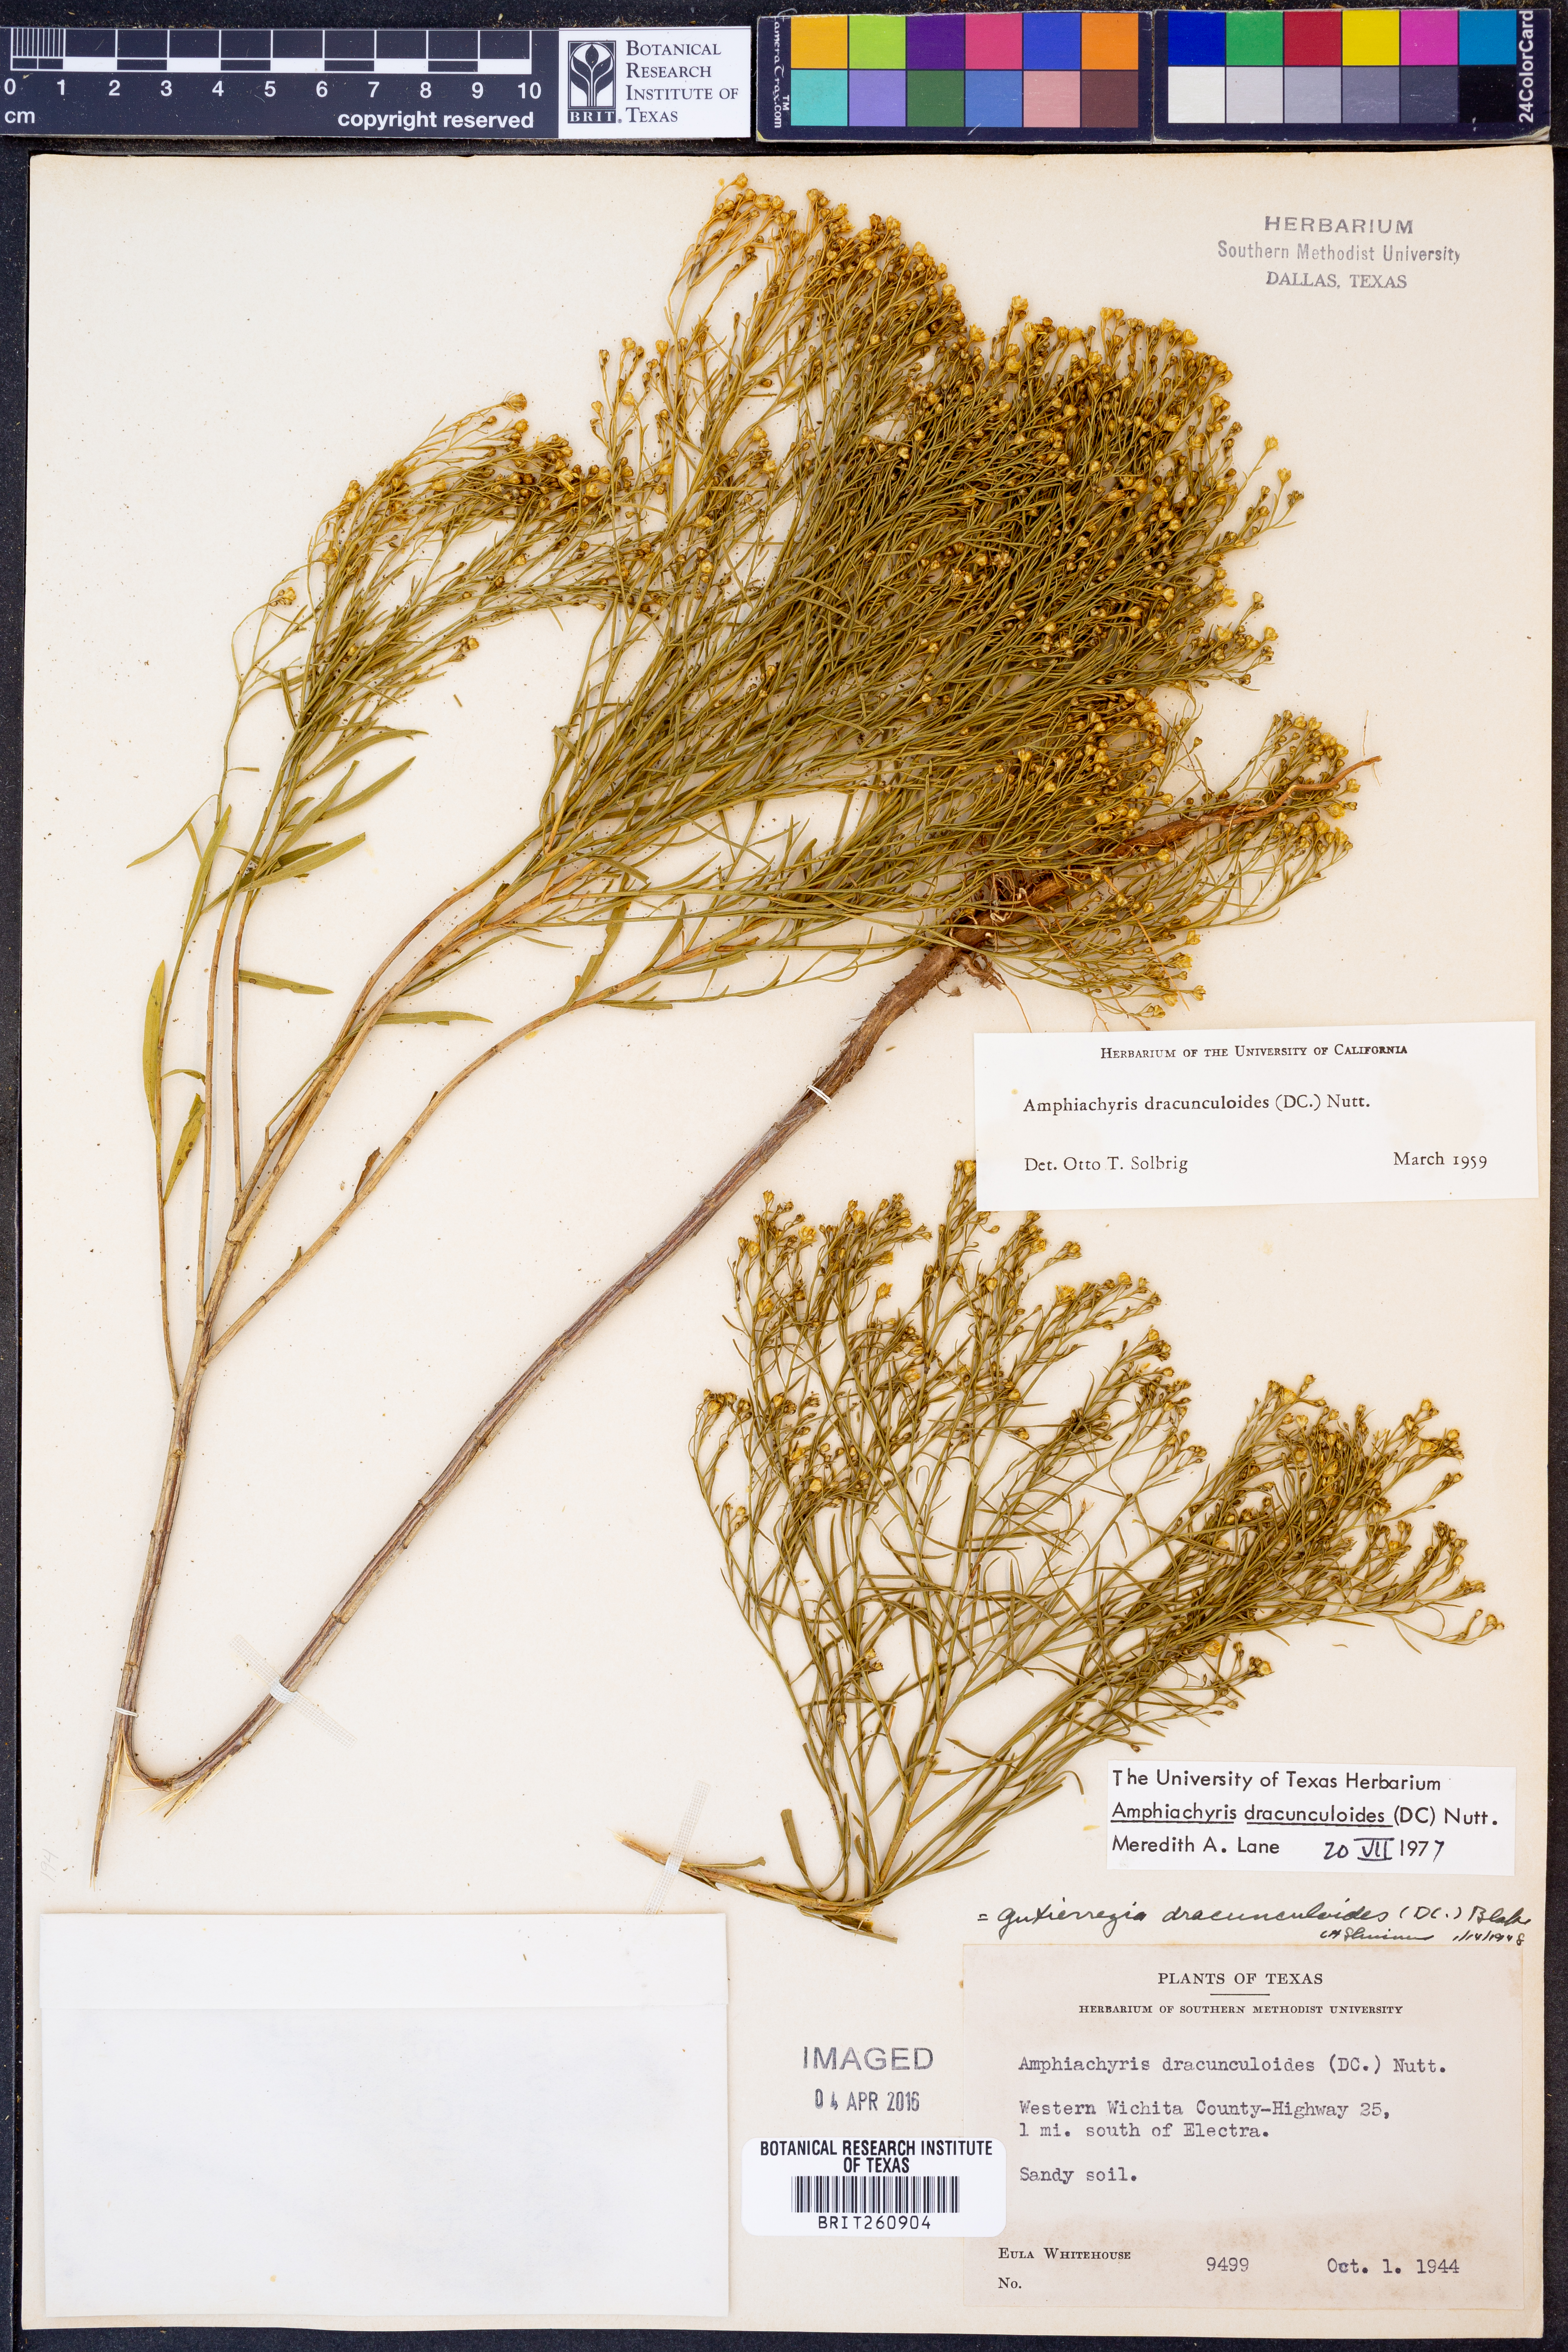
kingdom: Plantae
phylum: Tracheophyta
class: Magnoliopsida
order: Asterales
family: Asteraceae
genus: Amphiachyris
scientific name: Amphiachyris dracunculoides
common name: Broomweed
